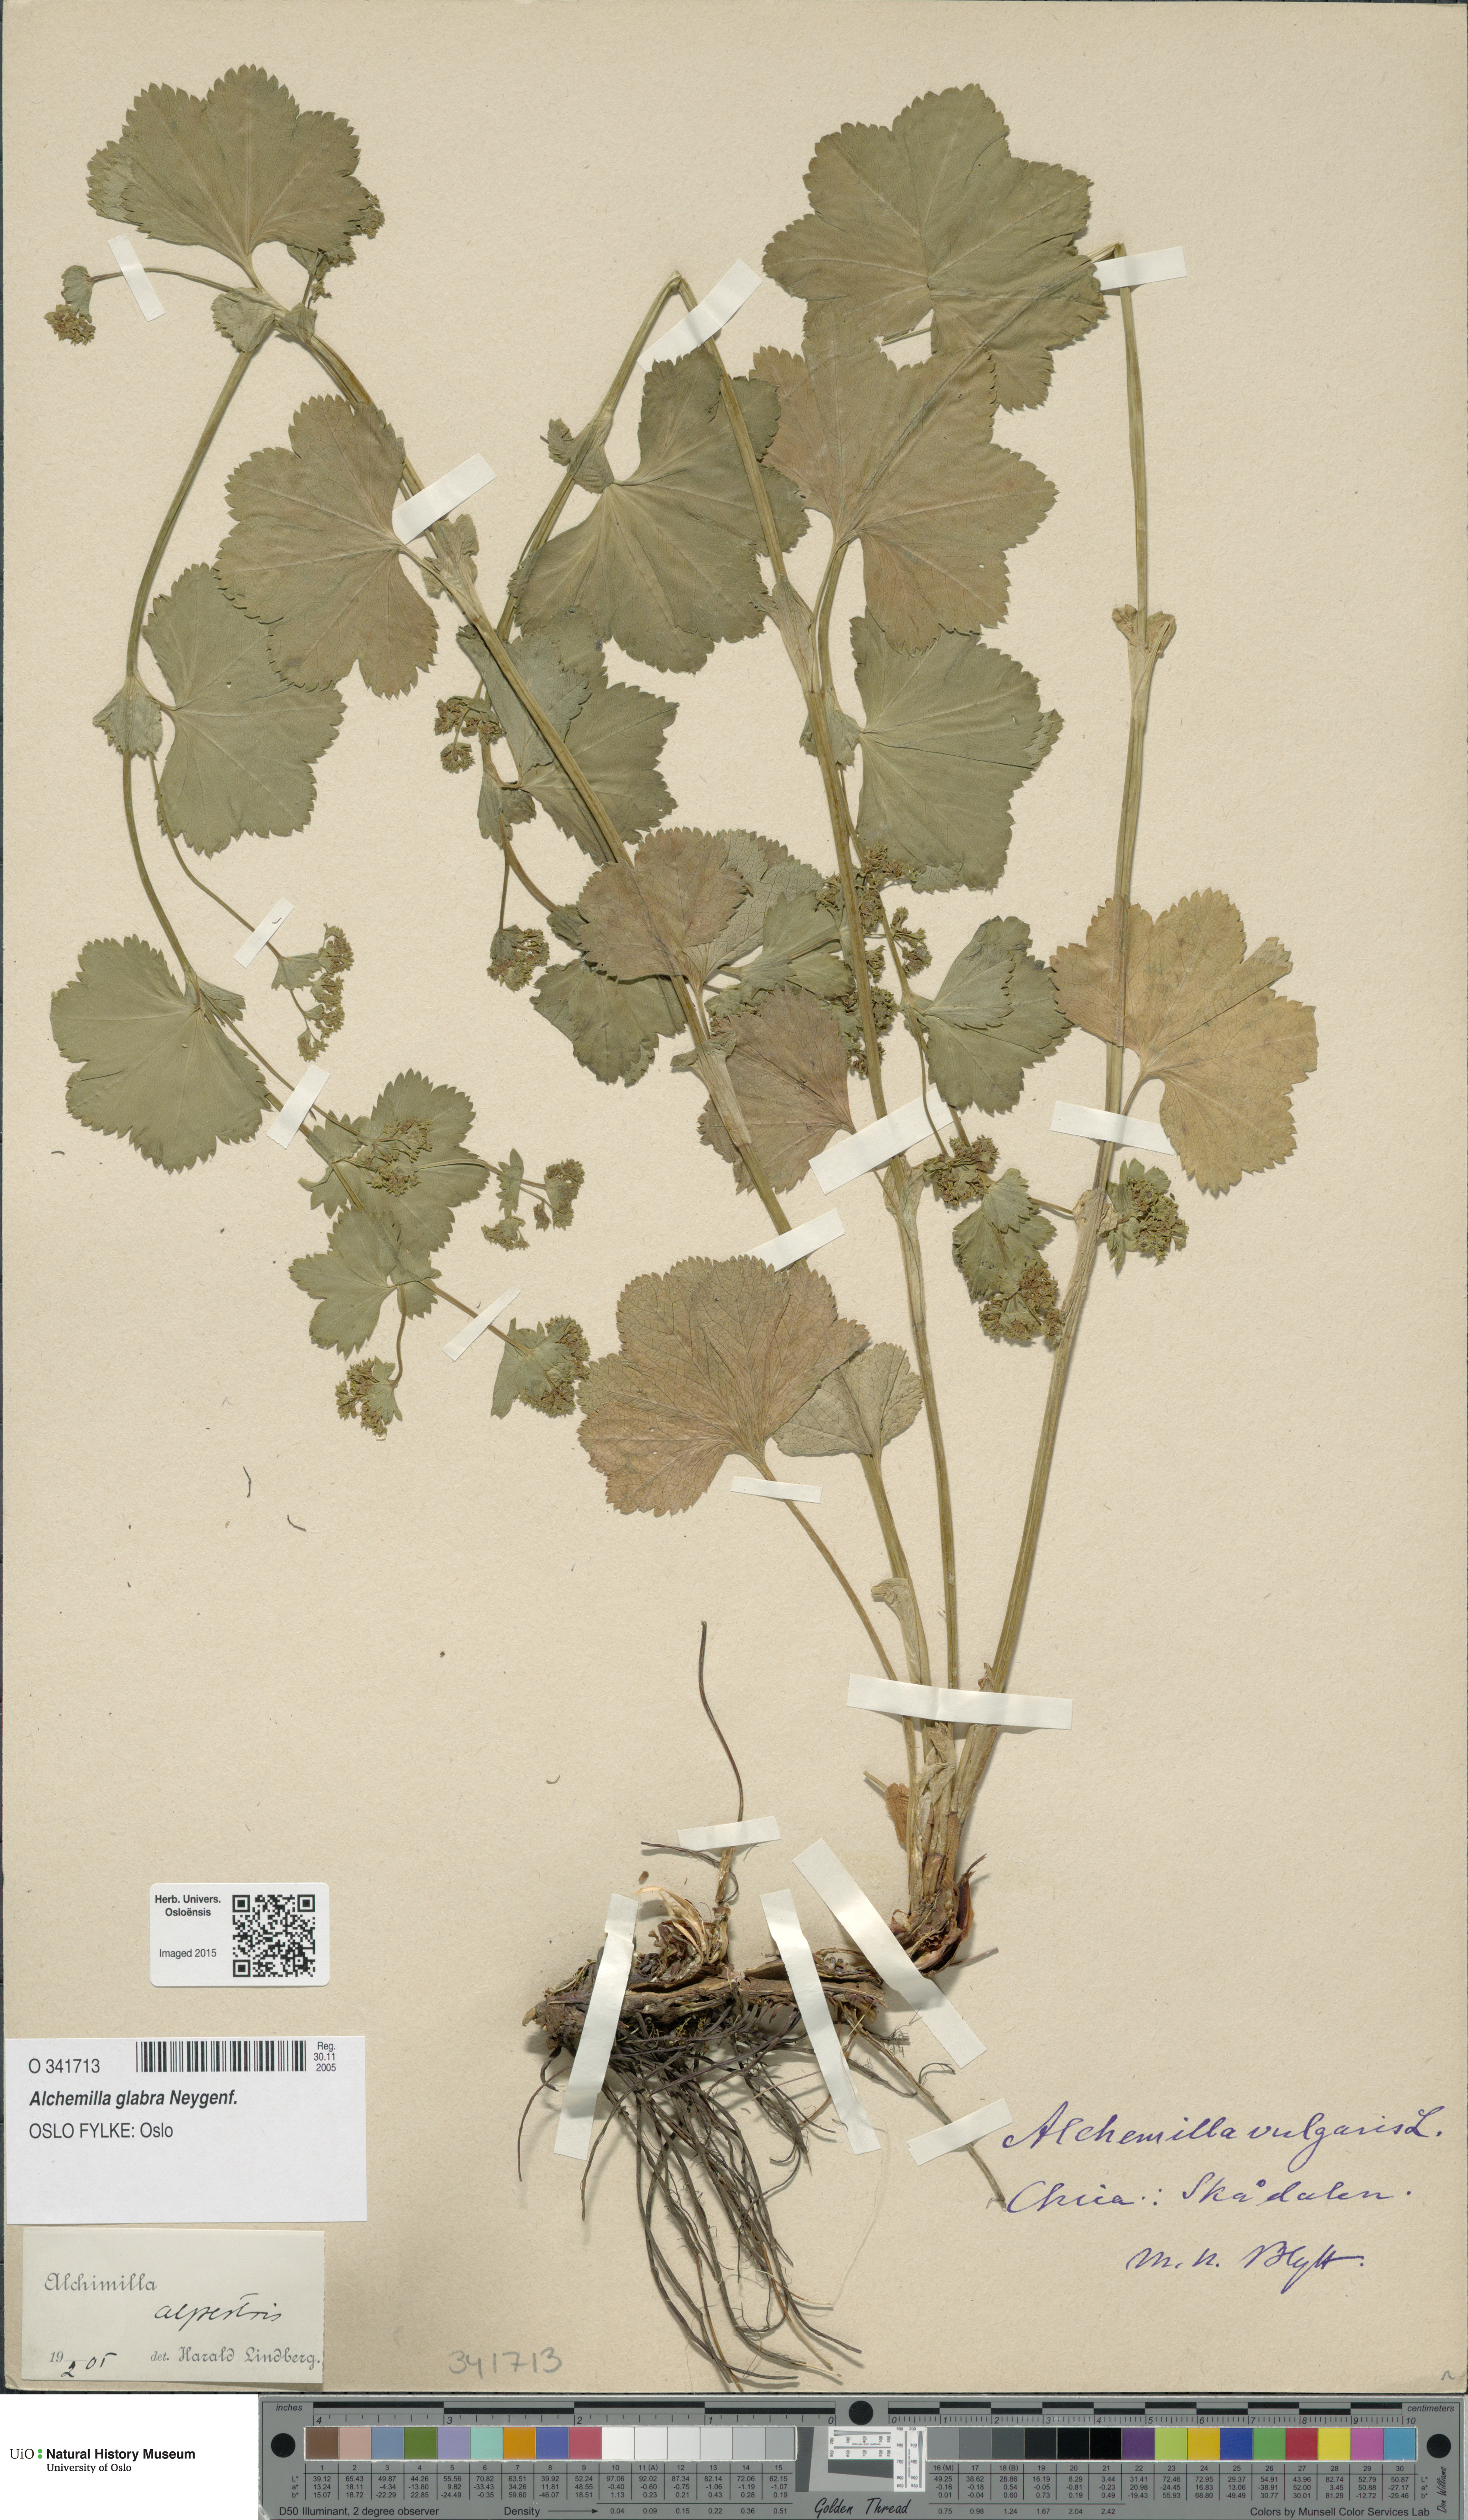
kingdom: Plantae
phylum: Tracheophyta
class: Magnoliopsida
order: Rosales
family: Rosaceae
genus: Alchemilla
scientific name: Alchemilla glabra
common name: Smooth lady's-mantle
